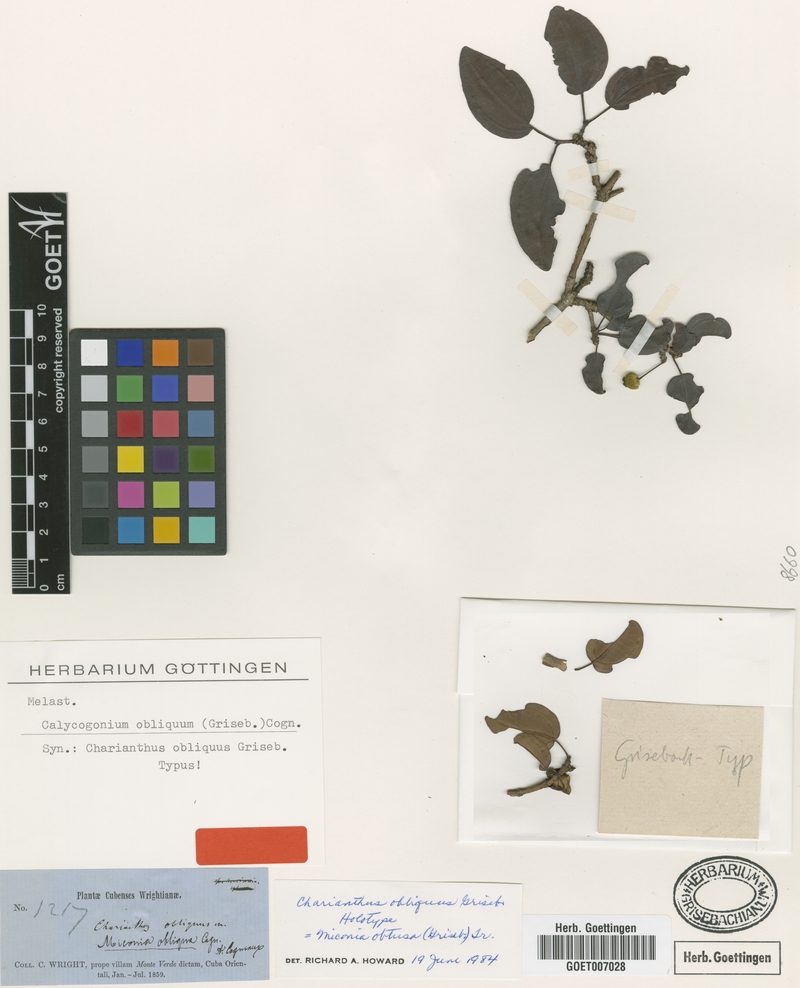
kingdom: Plantae
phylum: Tracheophyta
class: Magnoliopsida
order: Myrtales
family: Melastomataceae
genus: Miconia
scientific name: Miconia obtusa
